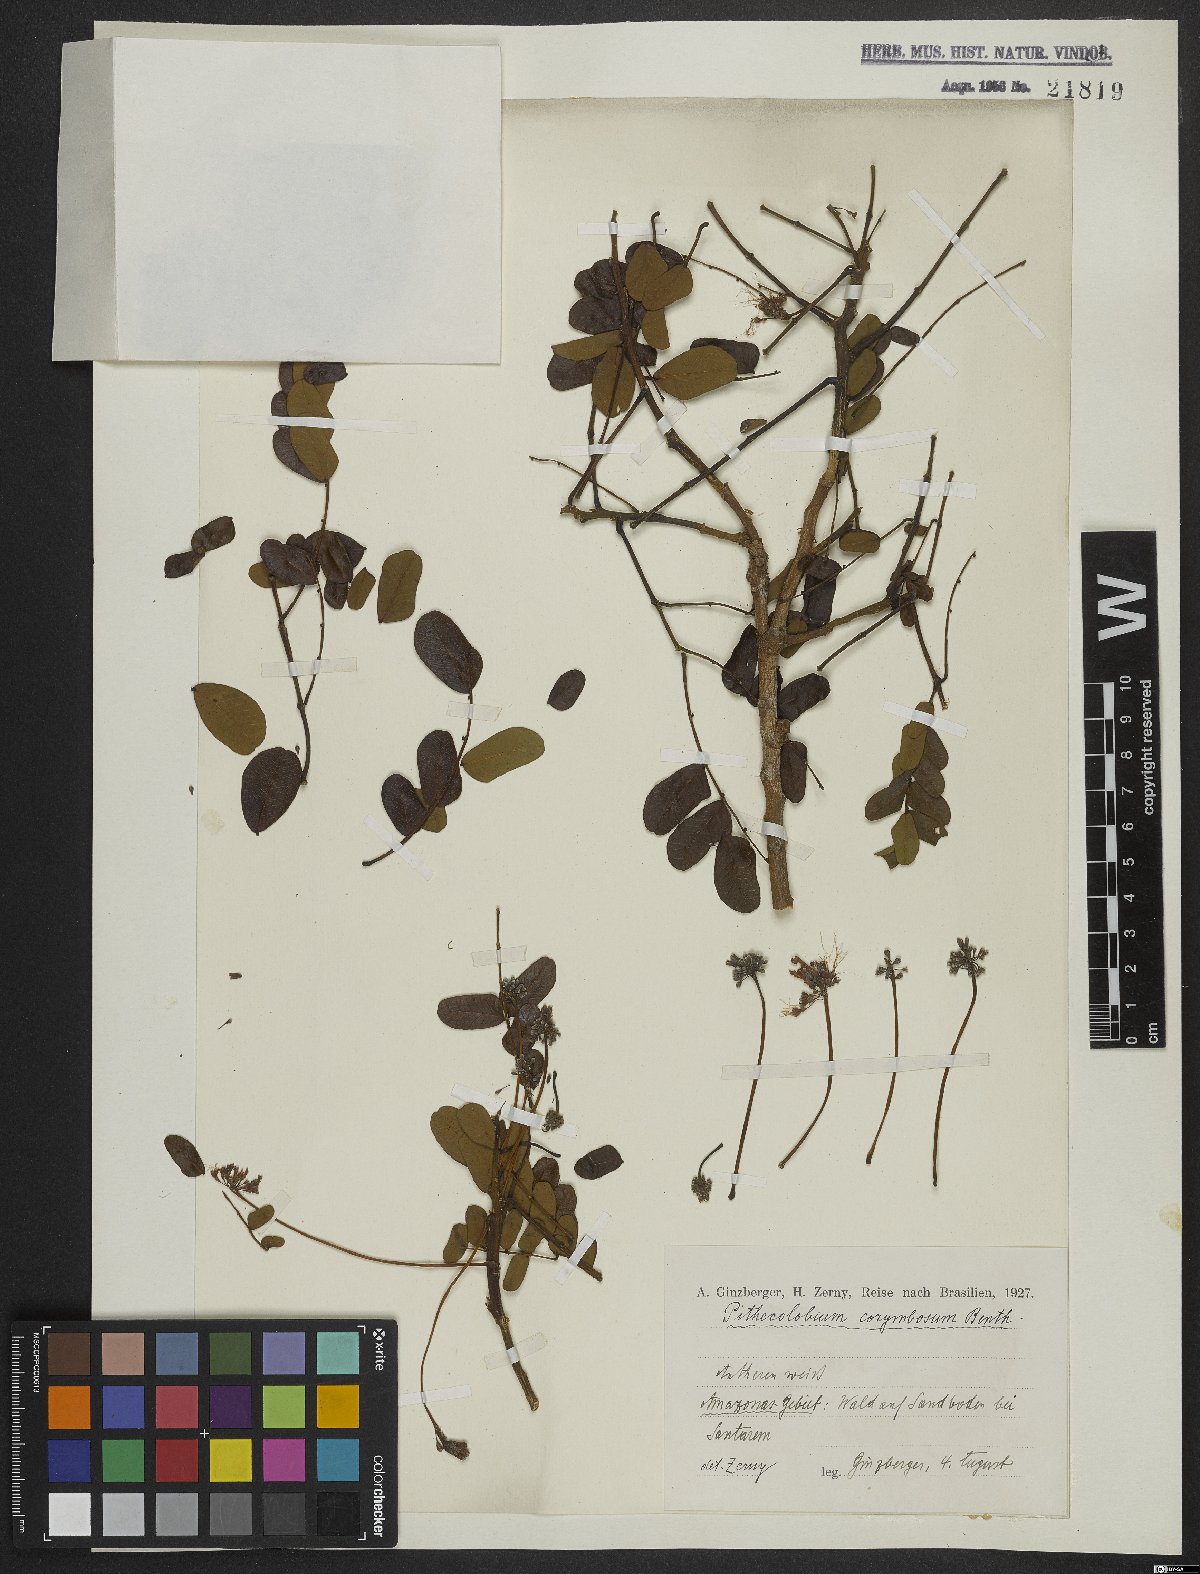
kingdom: Plantae
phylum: Tracheophyta
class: Magnoliopsida
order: Fabales
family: Fabaceae
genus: Hydrochorea
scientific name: Hydrochorea corymbosa
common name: Swamp manariballi
